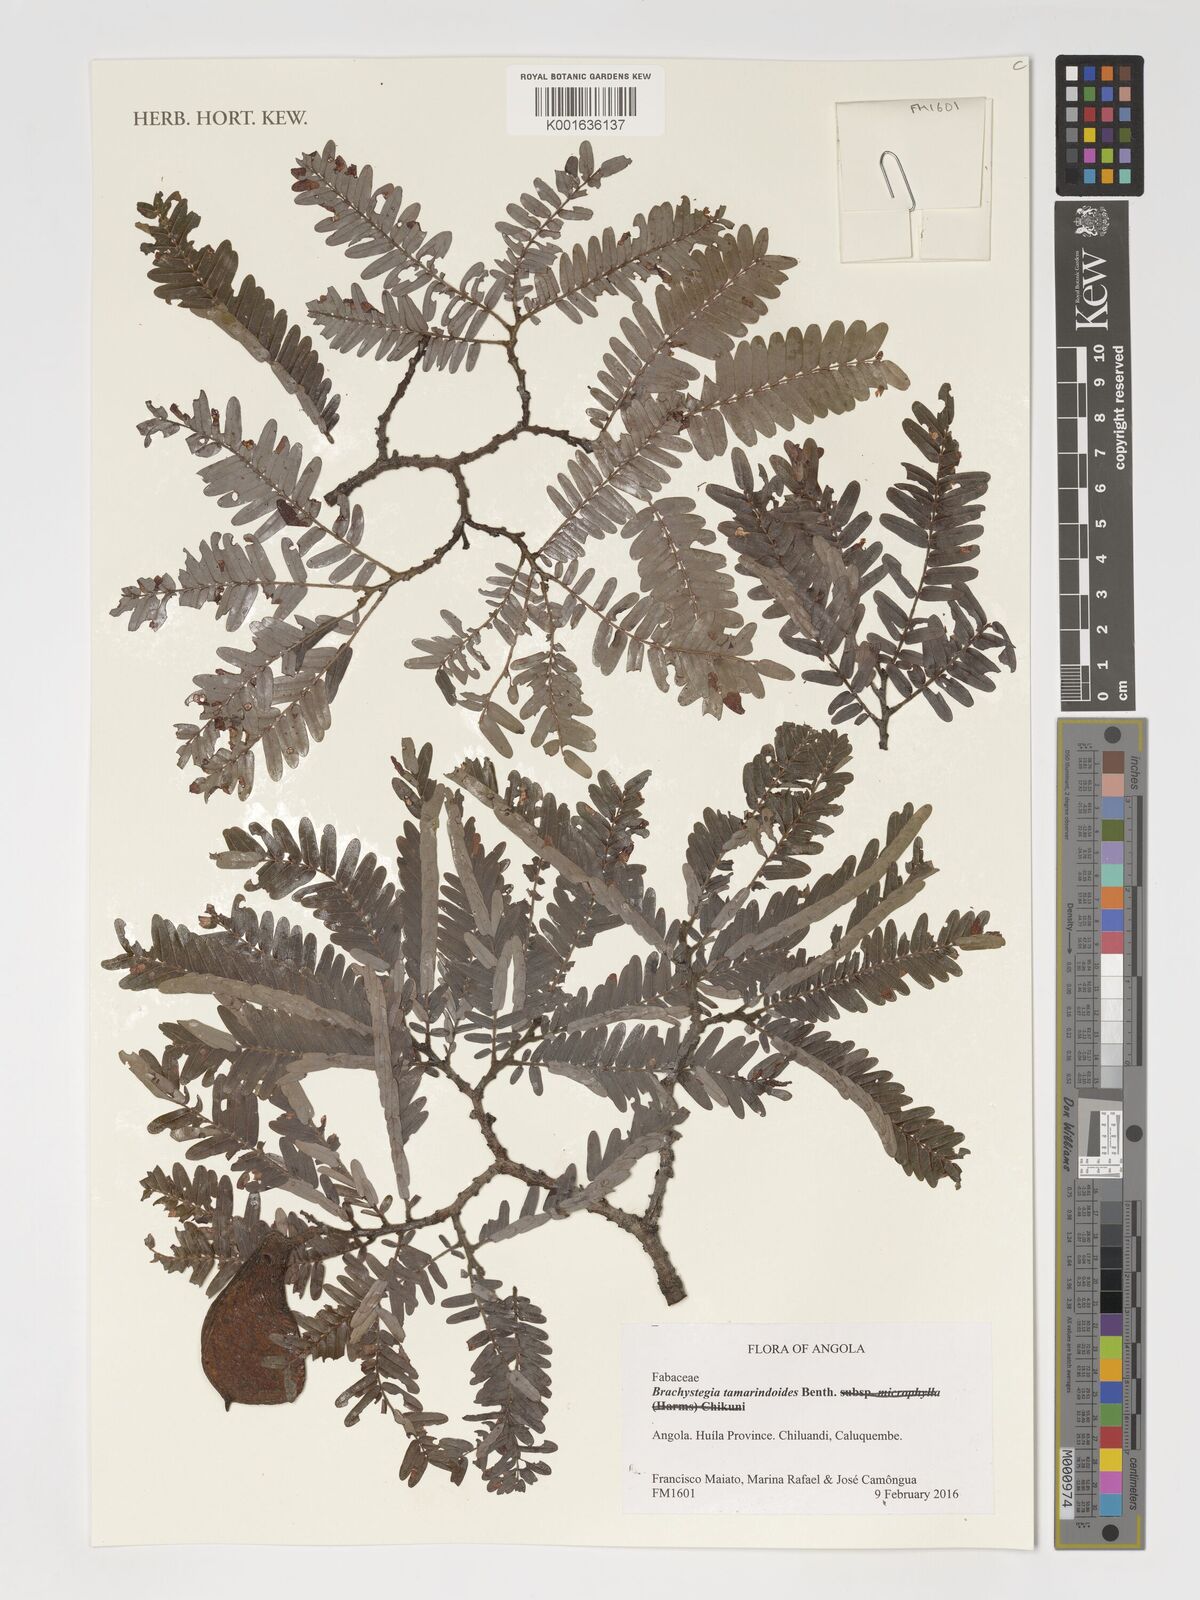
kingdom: Plantae
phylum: Tracheophyta
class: Magnoliopsida
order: Fabales
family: Fabaceae
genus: Brachystegia
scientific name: Brachystegia tamarindoides
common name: Mountain acacia
